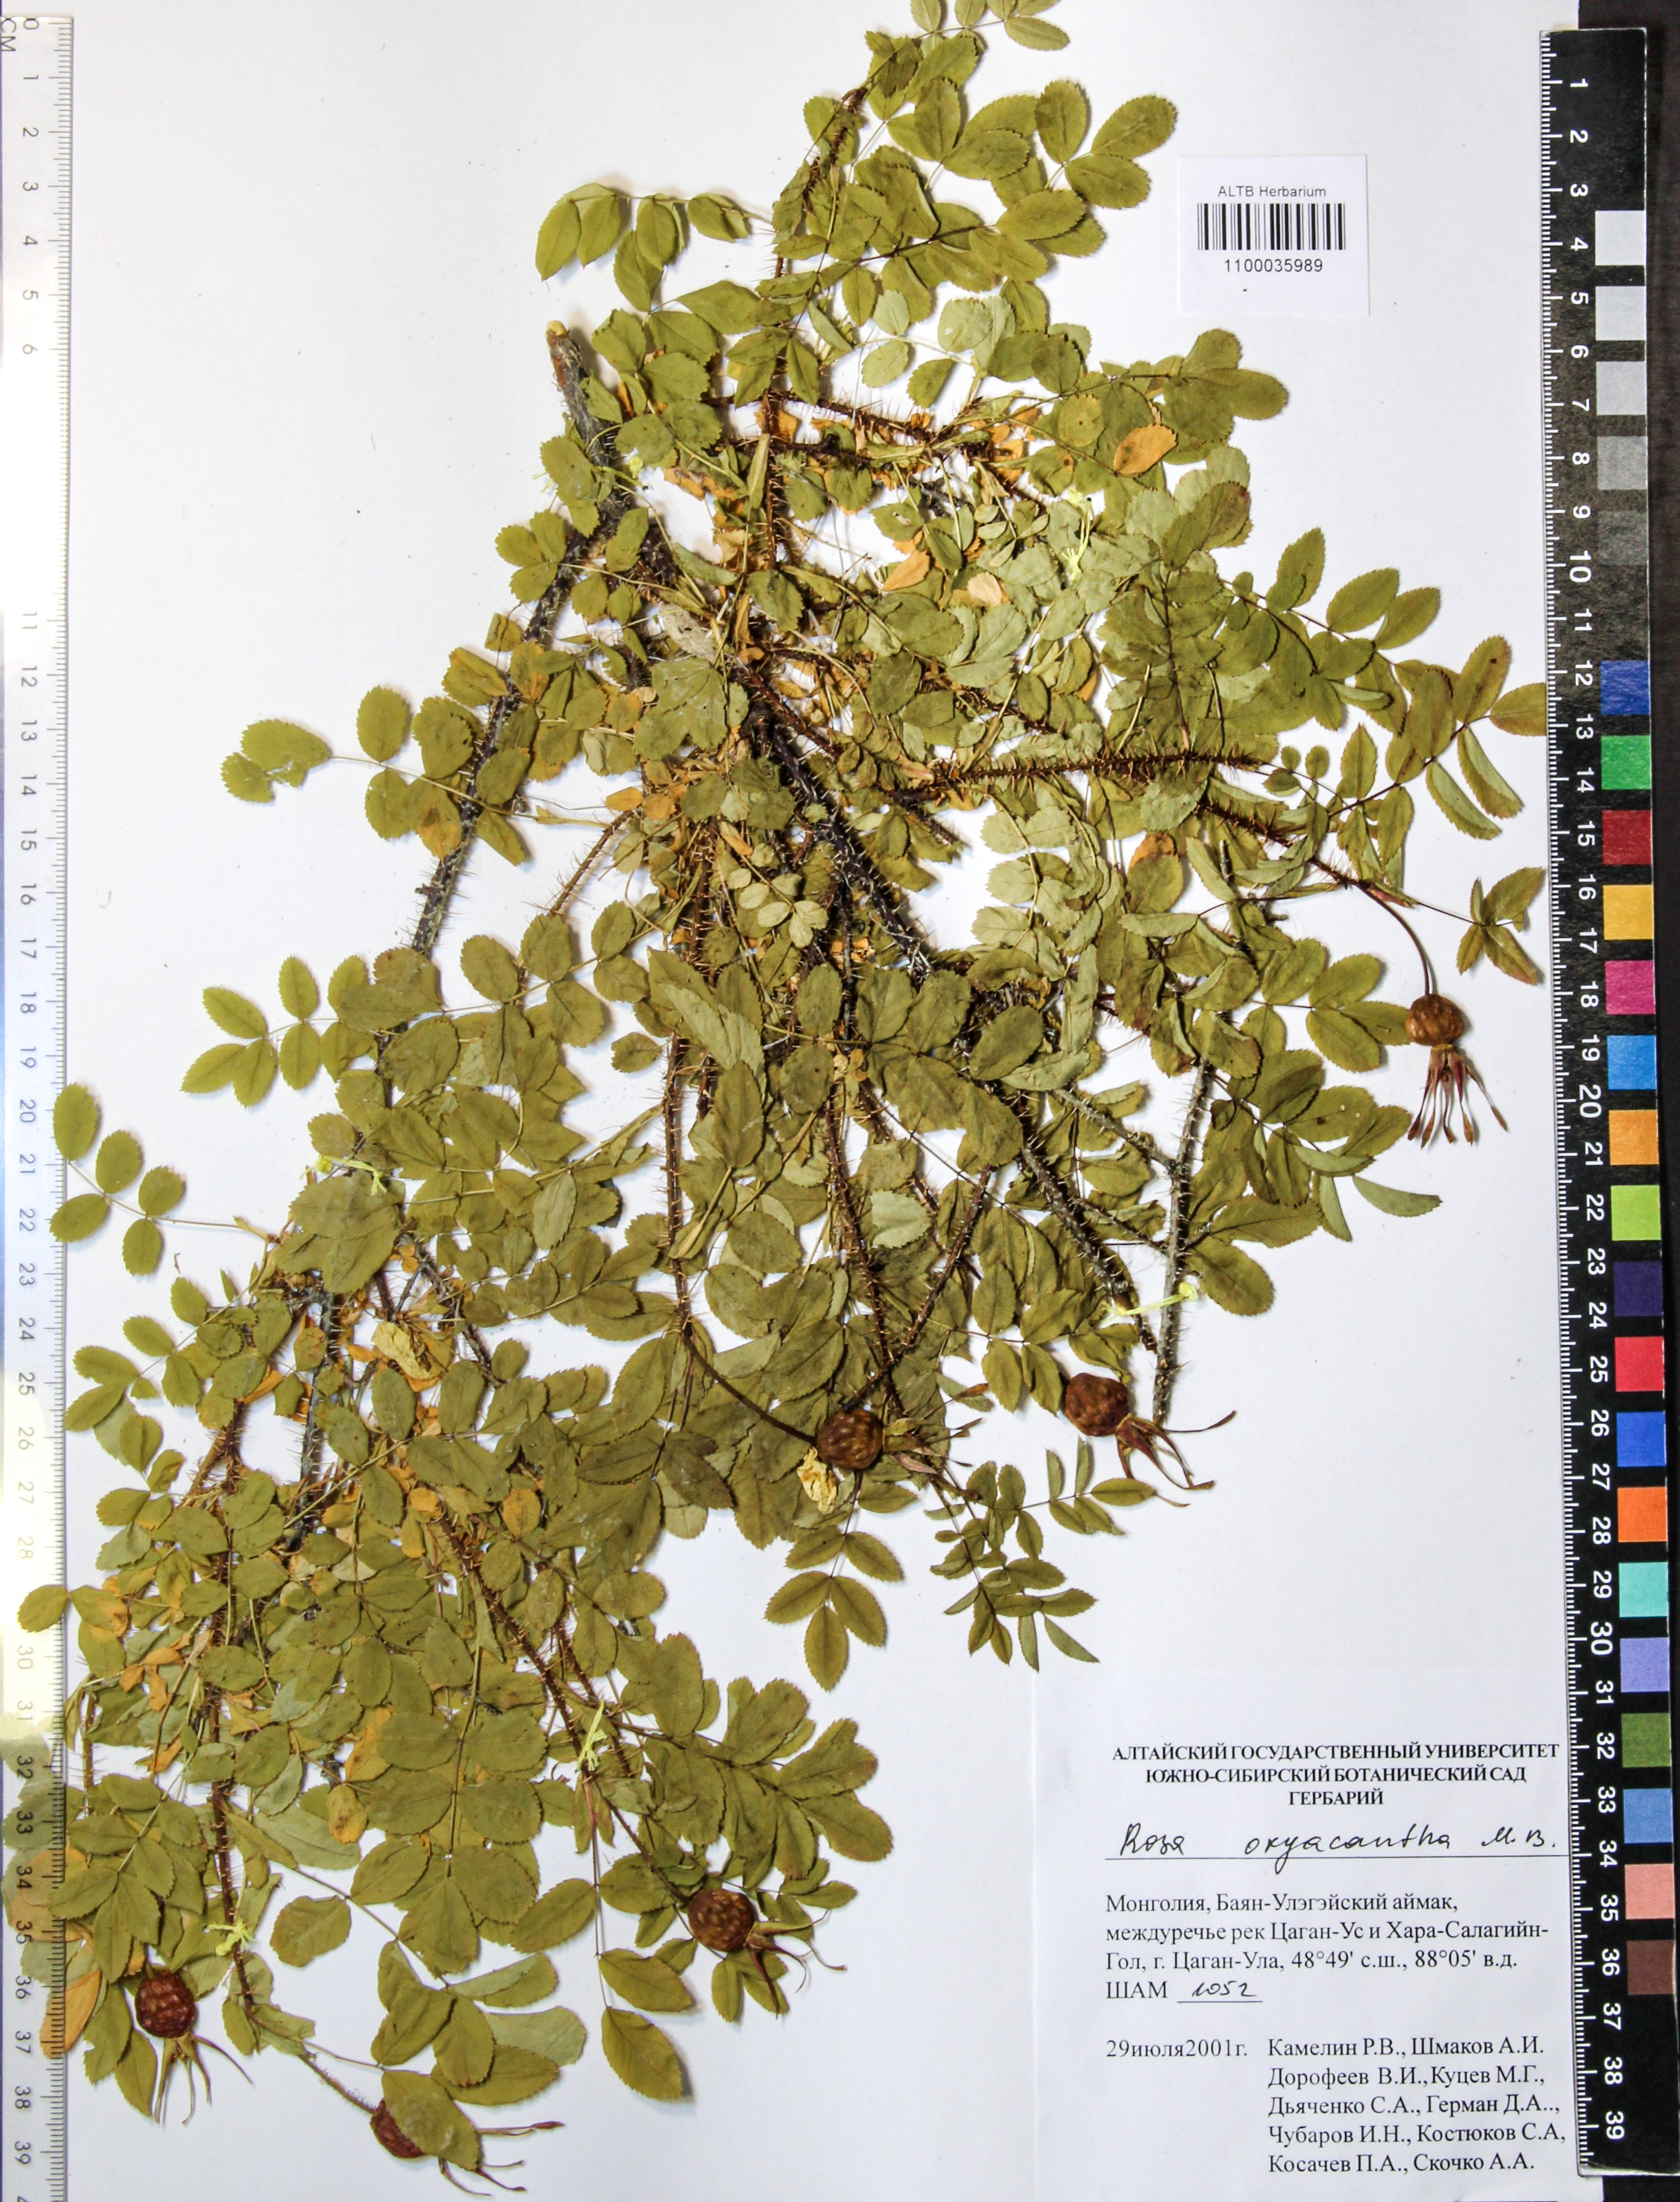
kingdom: Plantae
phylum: Tracheophyta
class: Magnoliopsida
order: Rosales
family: Rosaceae
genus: Rosa
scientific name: Rosa oxyacantha
